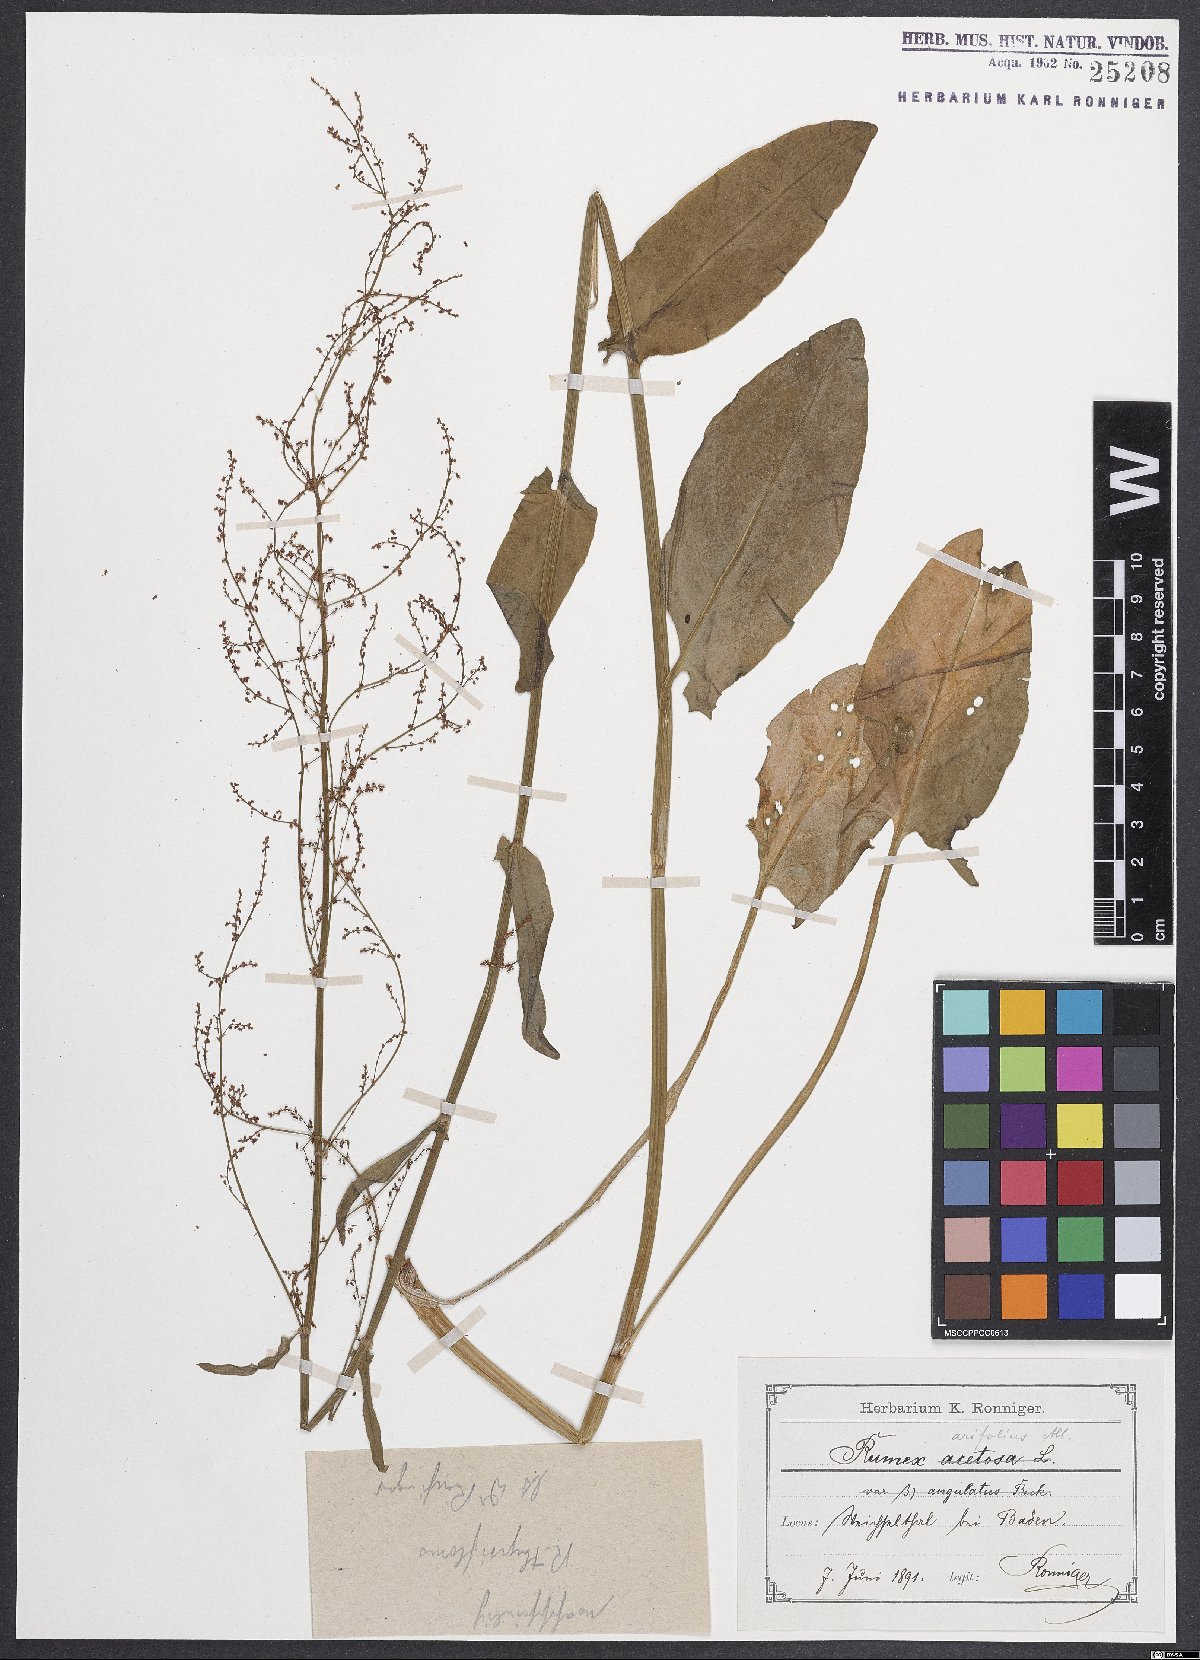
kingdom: Plantae
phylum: Tracheophyta
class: Magnoliopsida
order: Caryophyllales
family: Polygonaceae
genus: Rumex
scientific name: Rumex arifolius
